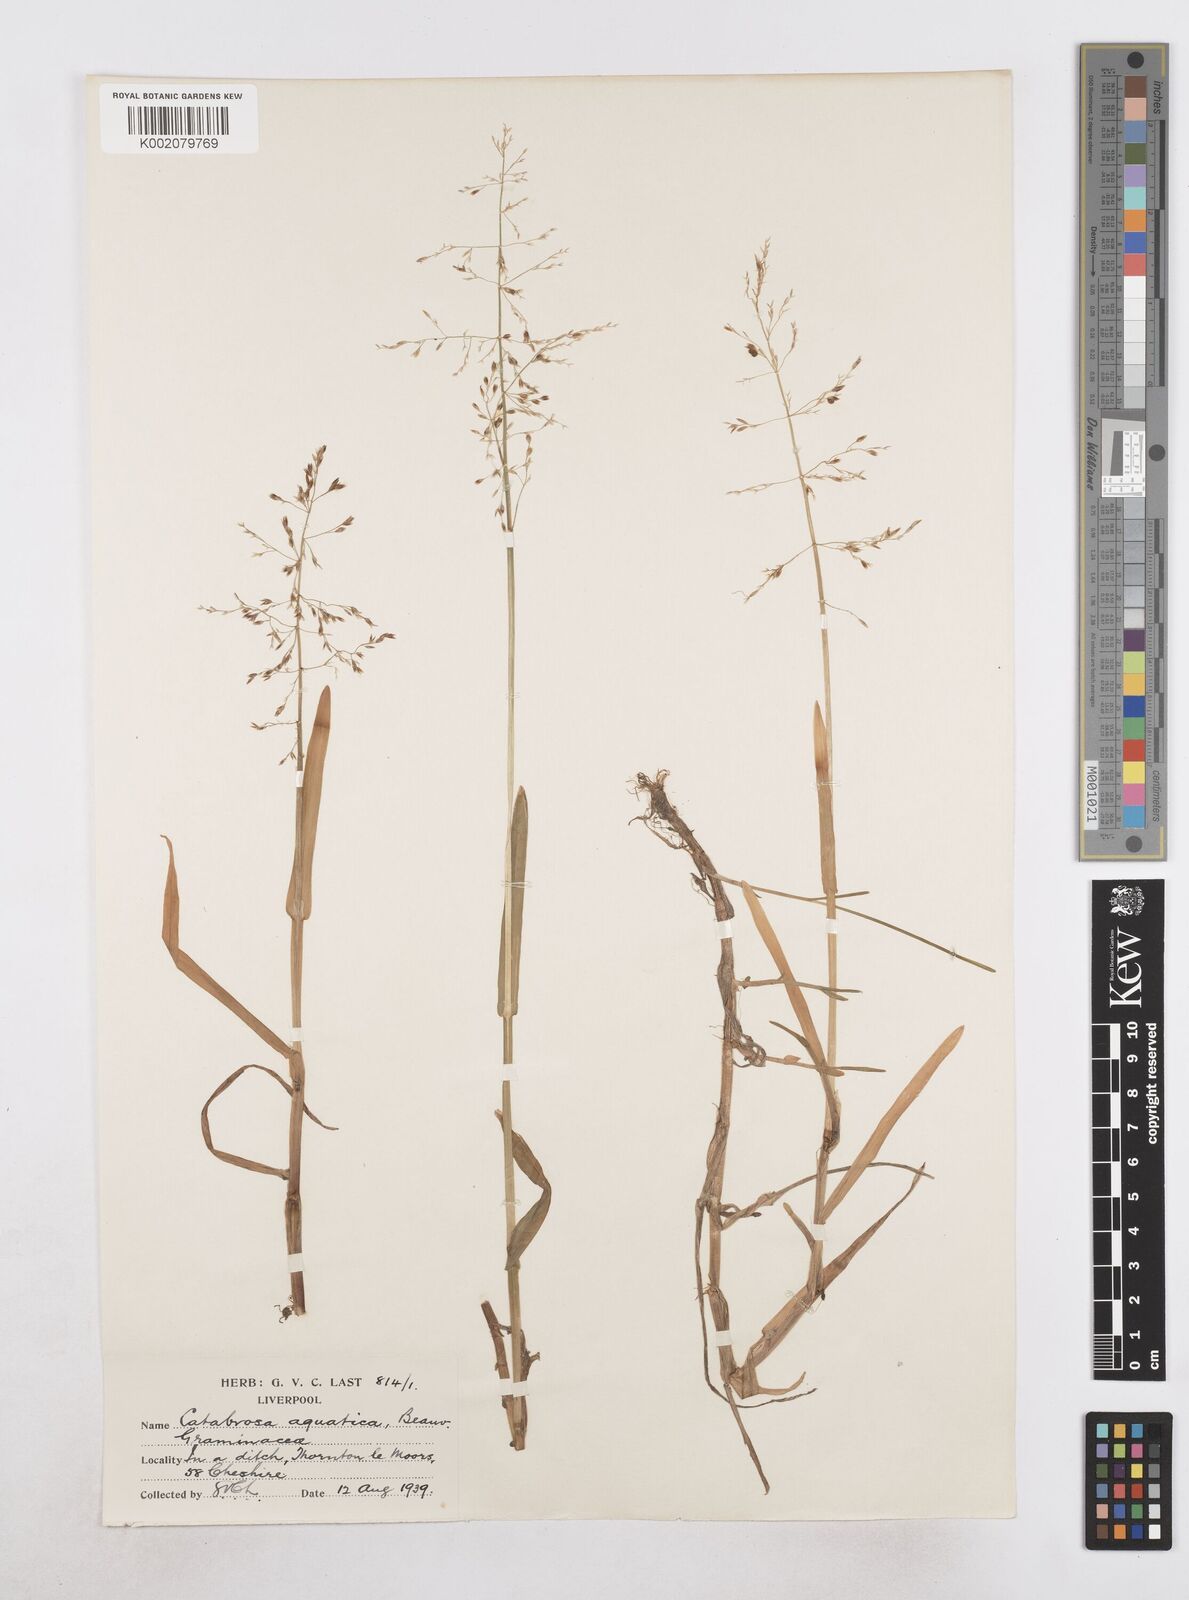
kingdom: Plantae
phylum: Tracheophyta
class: Liliopsida
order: Poales
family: Poaceae
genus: Catabrosa
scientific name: Catabrosa aquatica
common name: Whorl-grass
